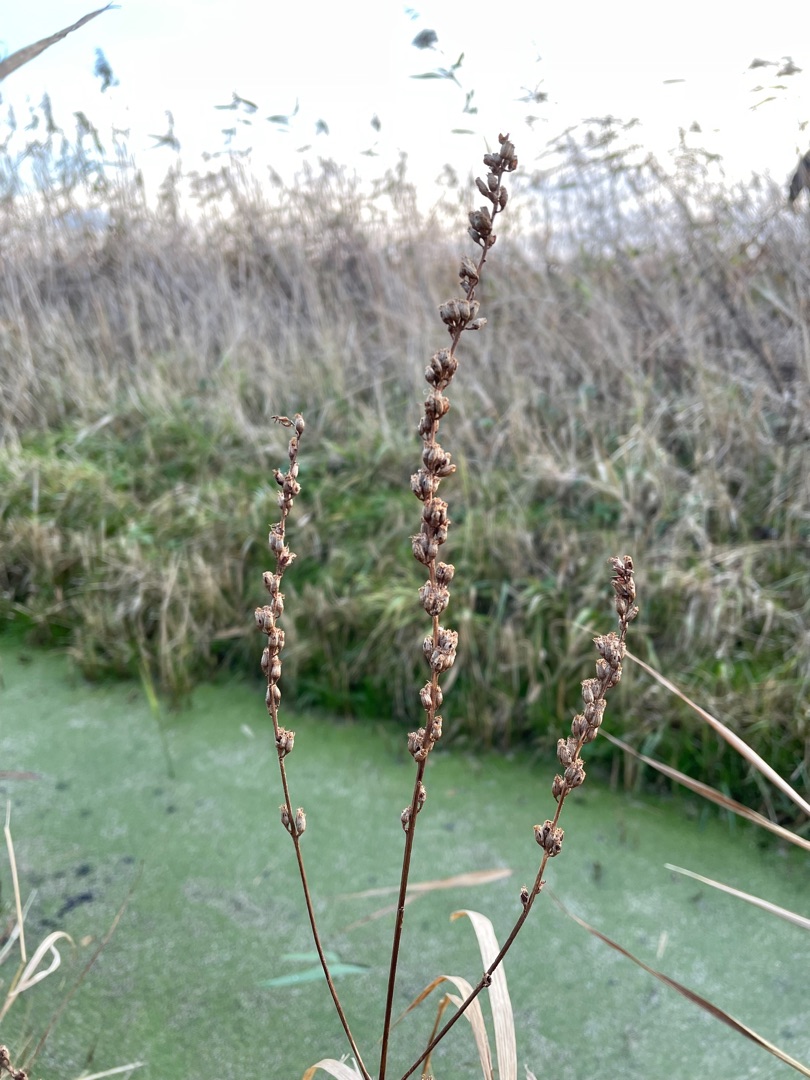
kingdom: Plantae
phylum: Tracheophyta
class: Magnoliopsida
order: Myrtales
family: Lythraceae
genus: Lythrum
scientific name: Lythrum salicaria
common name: Kattehale
